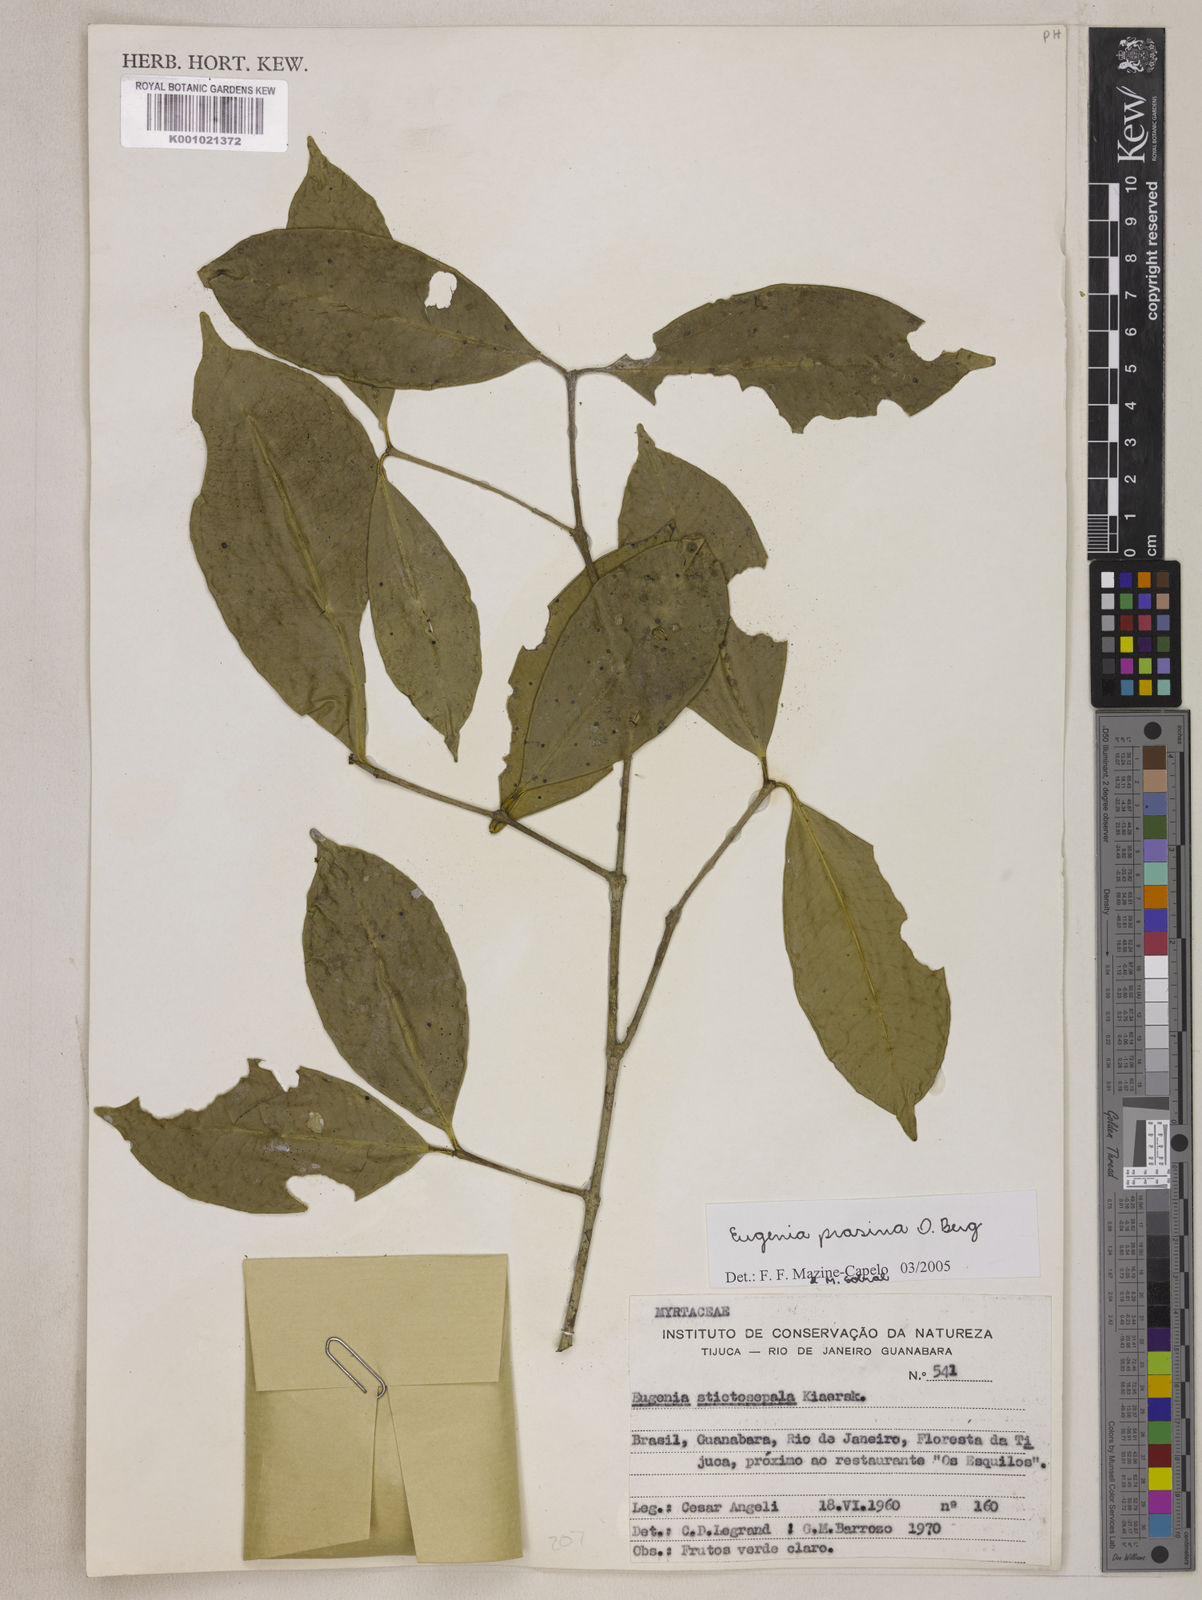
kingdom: Plantae
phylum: Tracheophyta
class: Magnoliopsida
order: Myrtales
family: Myrtaceae
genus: Eugenia
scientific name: Eugenia prasina
